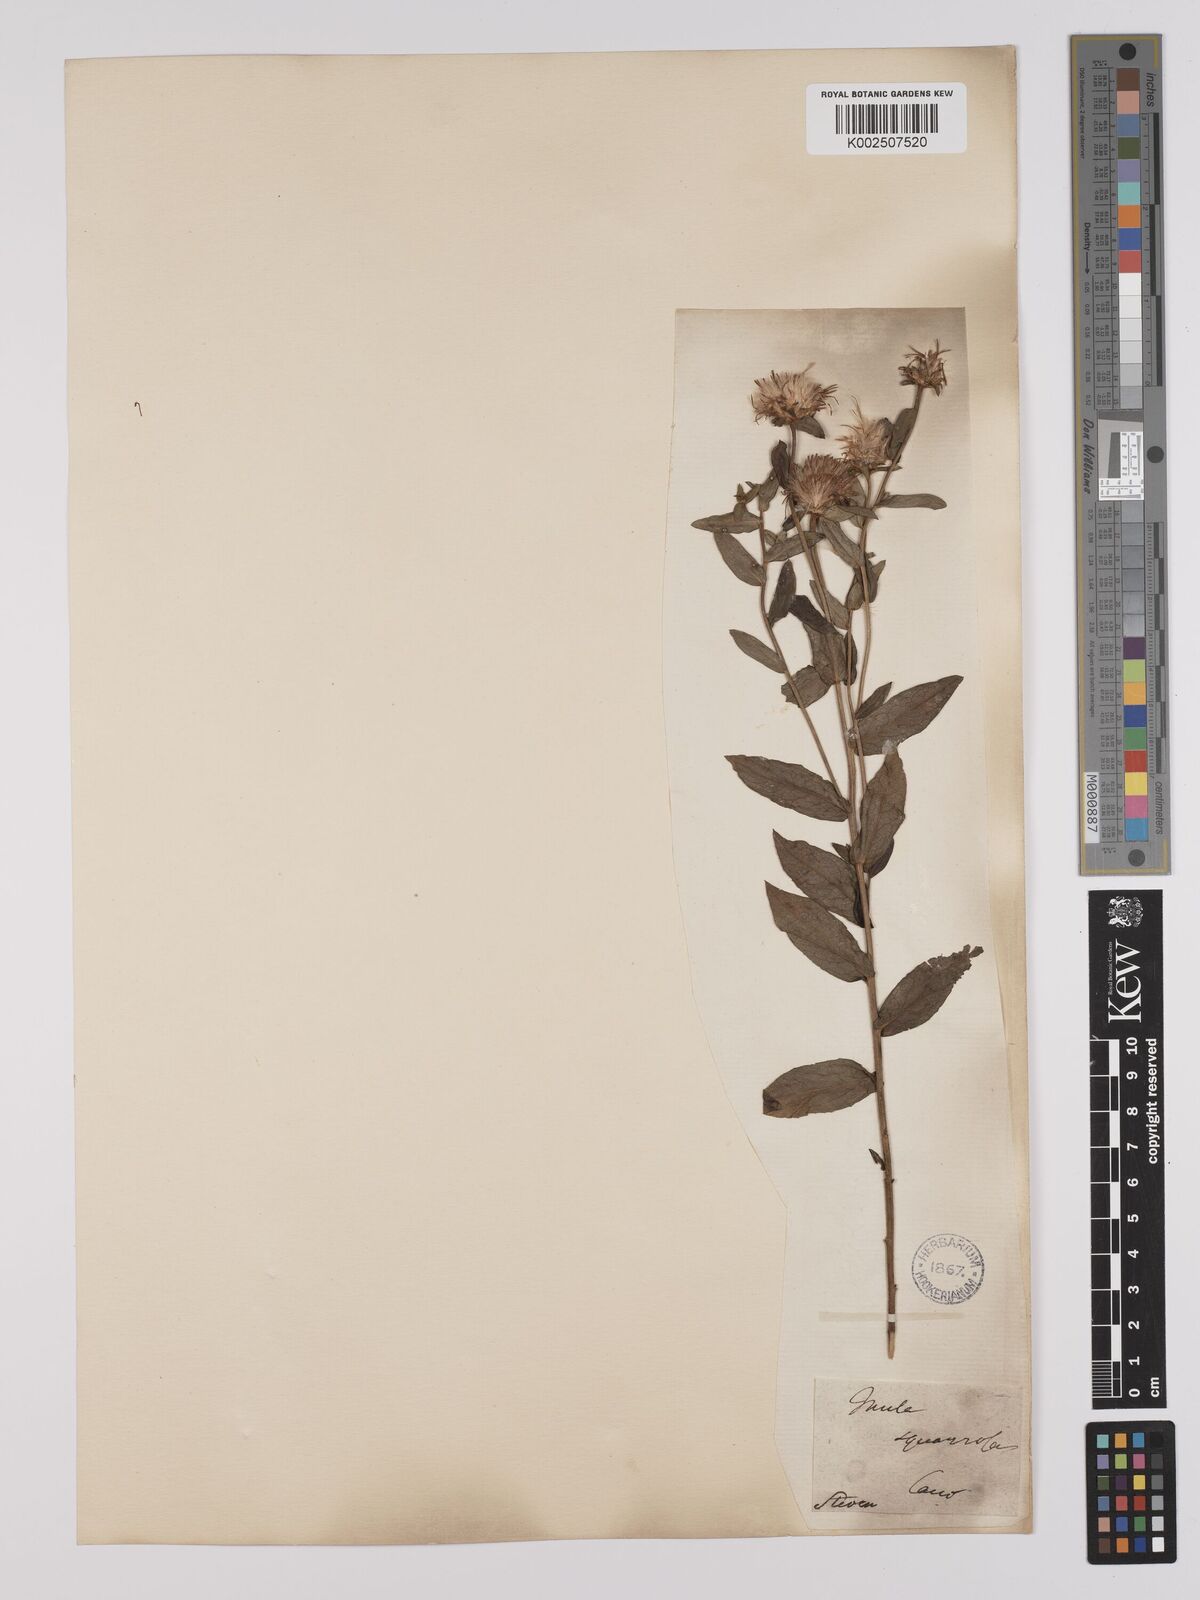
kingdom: Plantae
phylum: Tracheophyta
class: Magnoliopsida
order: Asterales
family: Asteraceae
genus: Pentanema
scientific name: Pentanema spiraeifolium
